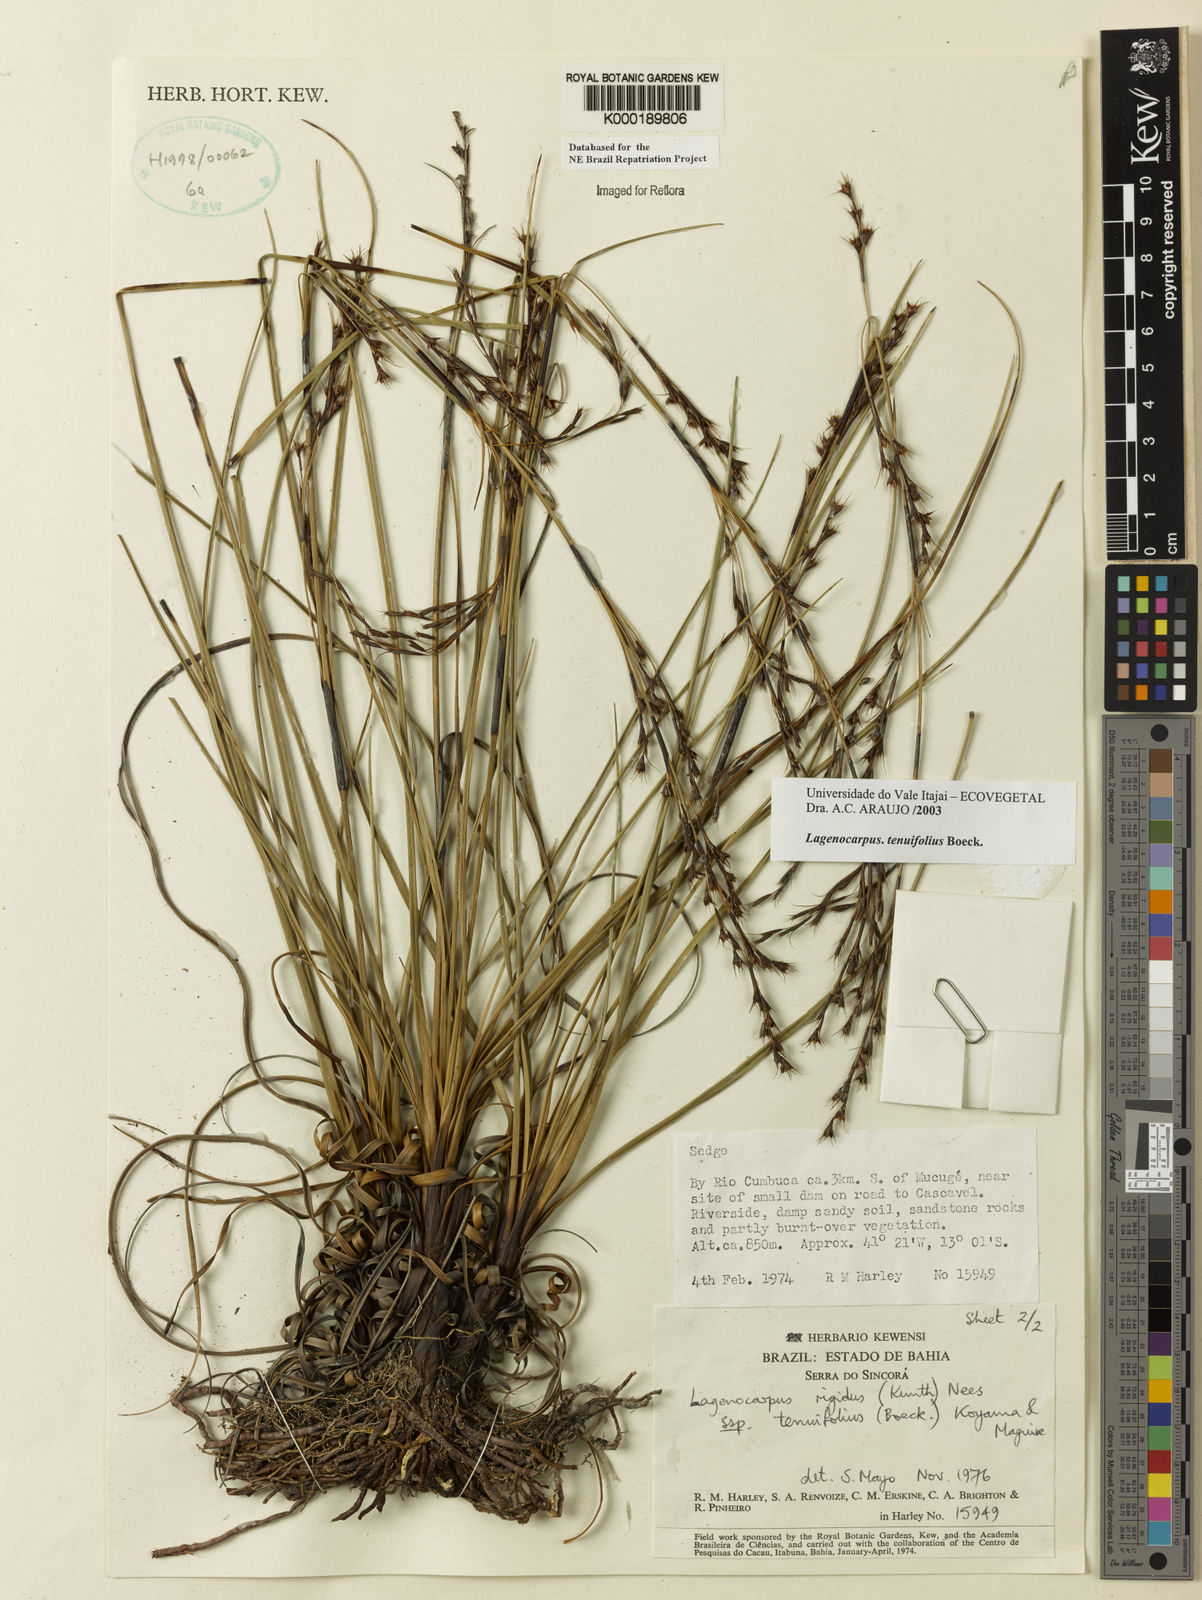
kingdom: Plantae
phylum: Tracheophyta
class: Liliopsida
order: Poales
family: Cyperaceae
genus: Lagenocarpus
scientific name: Lagenocarpus rigidus
